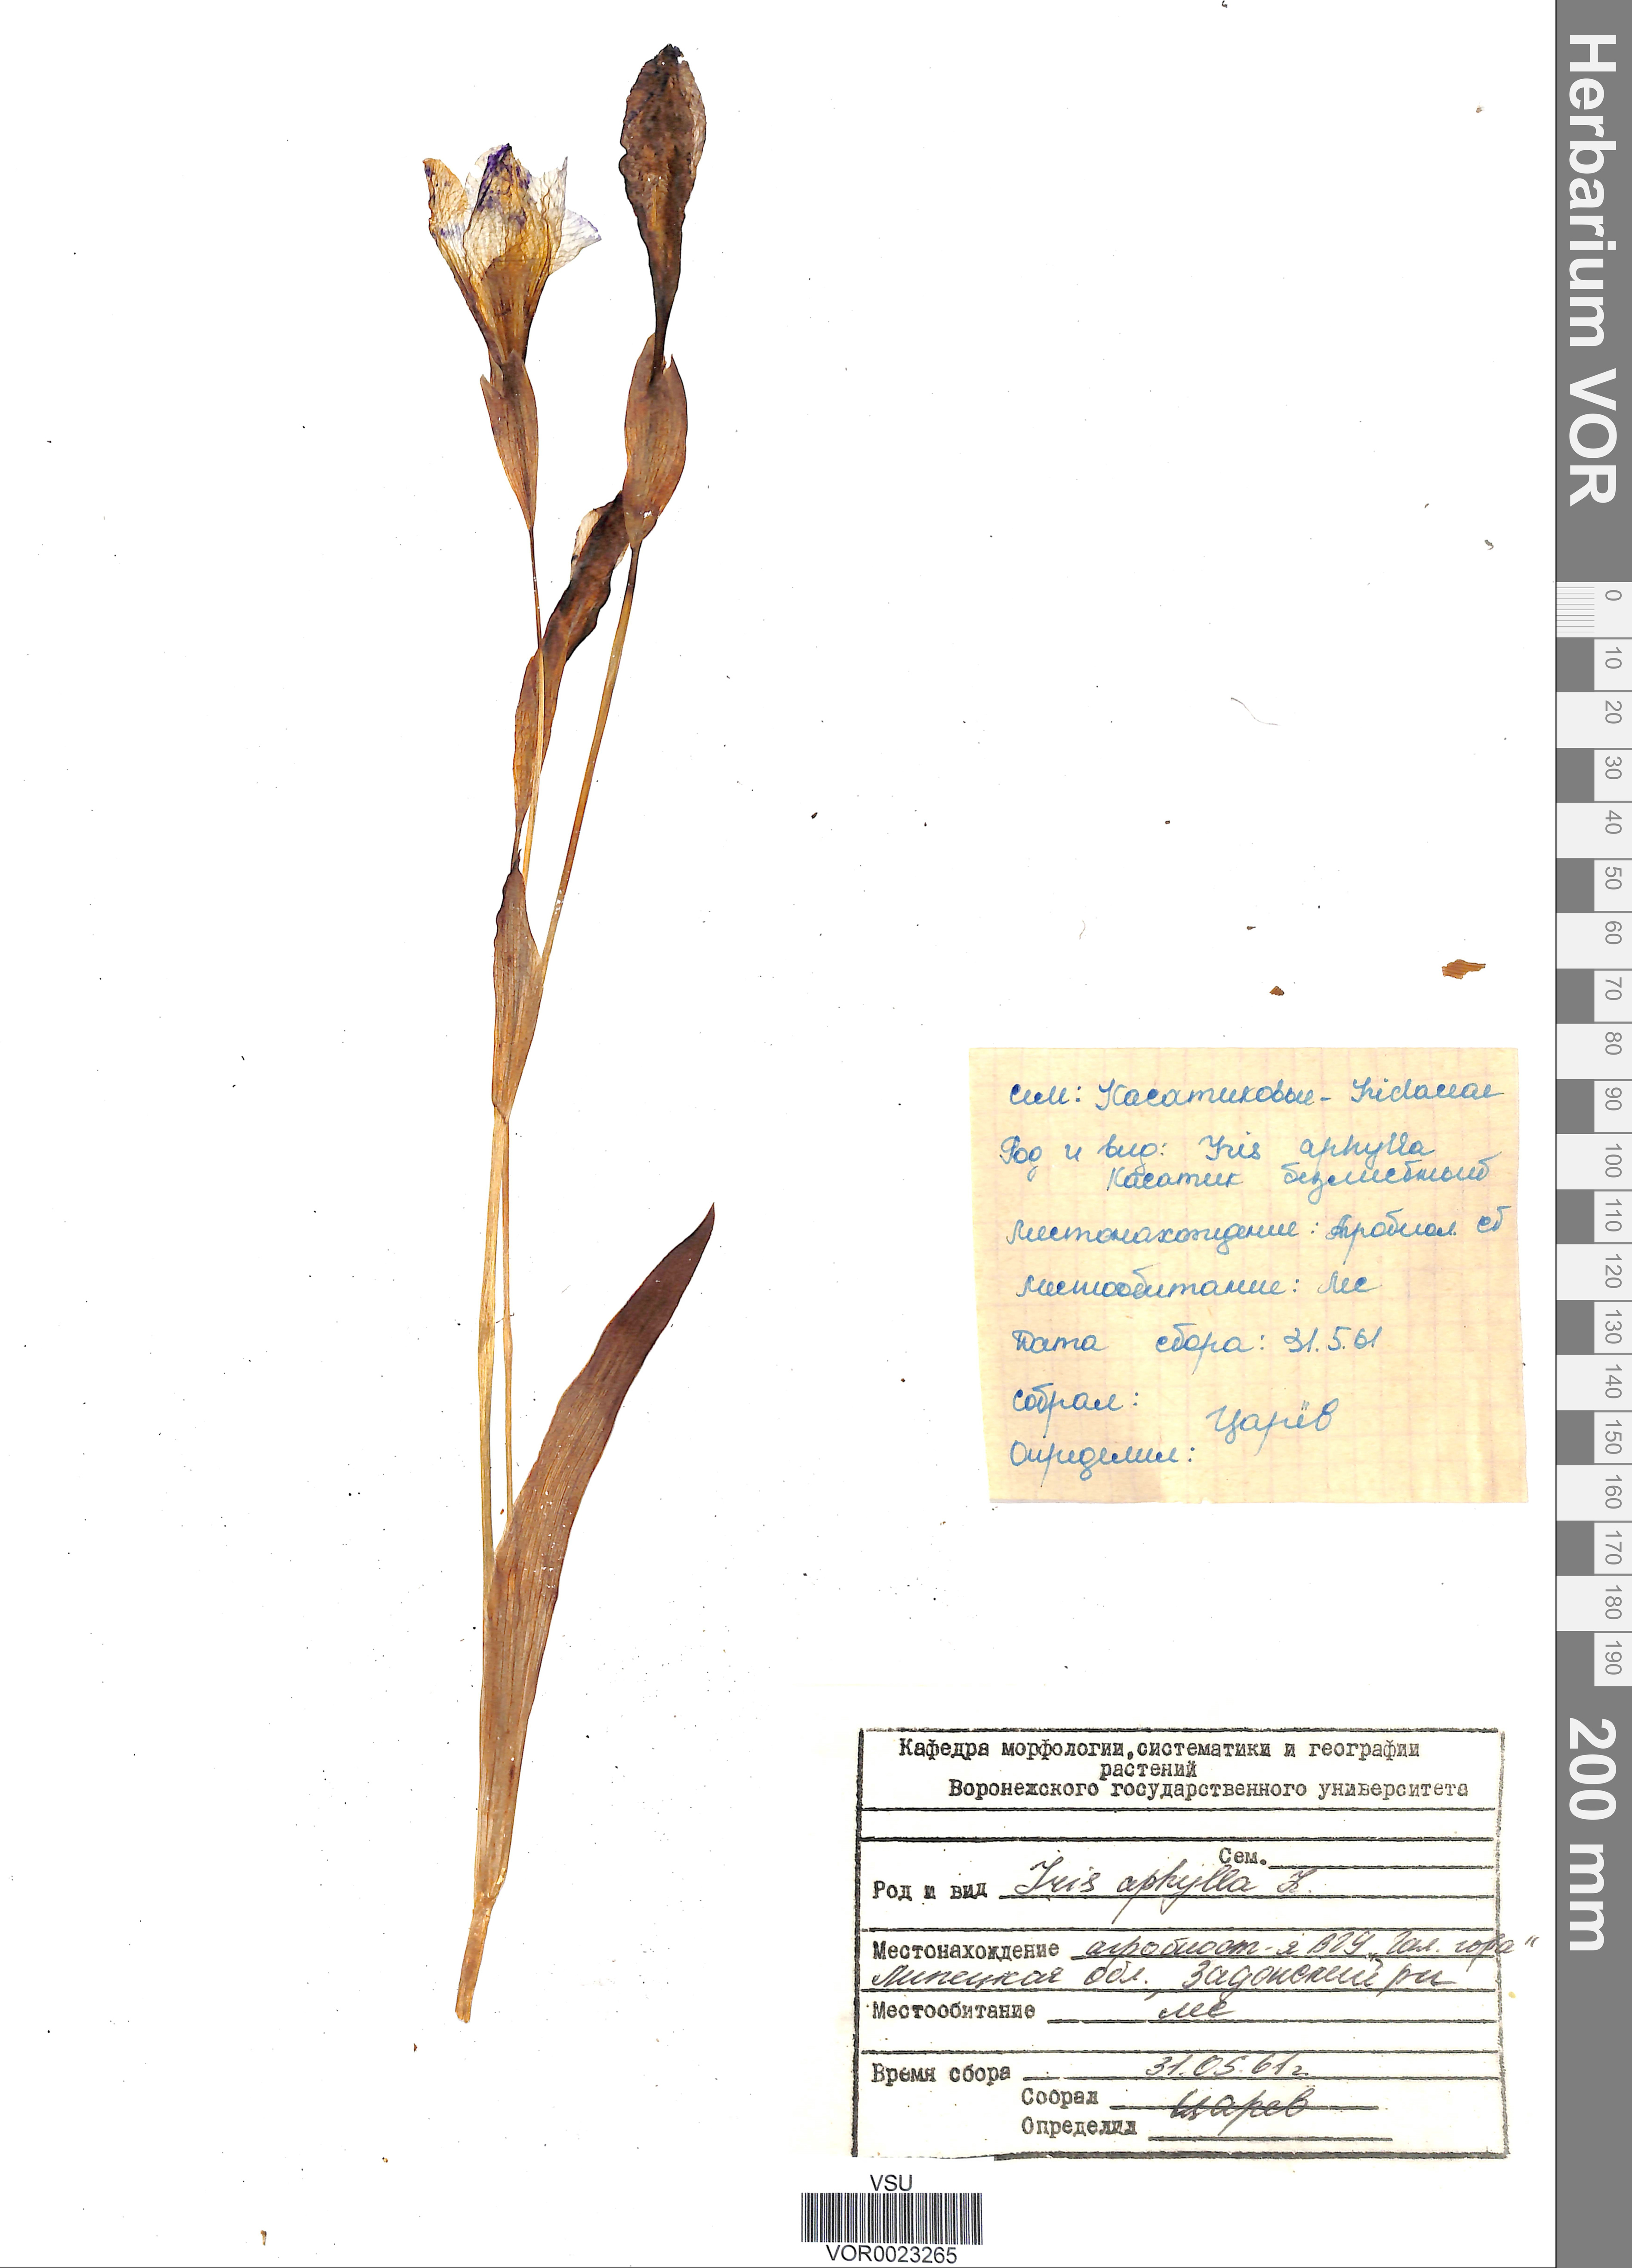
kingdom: Plantae
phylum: Tracheophyta
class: Liliopsida
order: Asparagales
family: Iridaceae
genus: Iris
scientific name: Iris aphylla
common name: Stool iris
